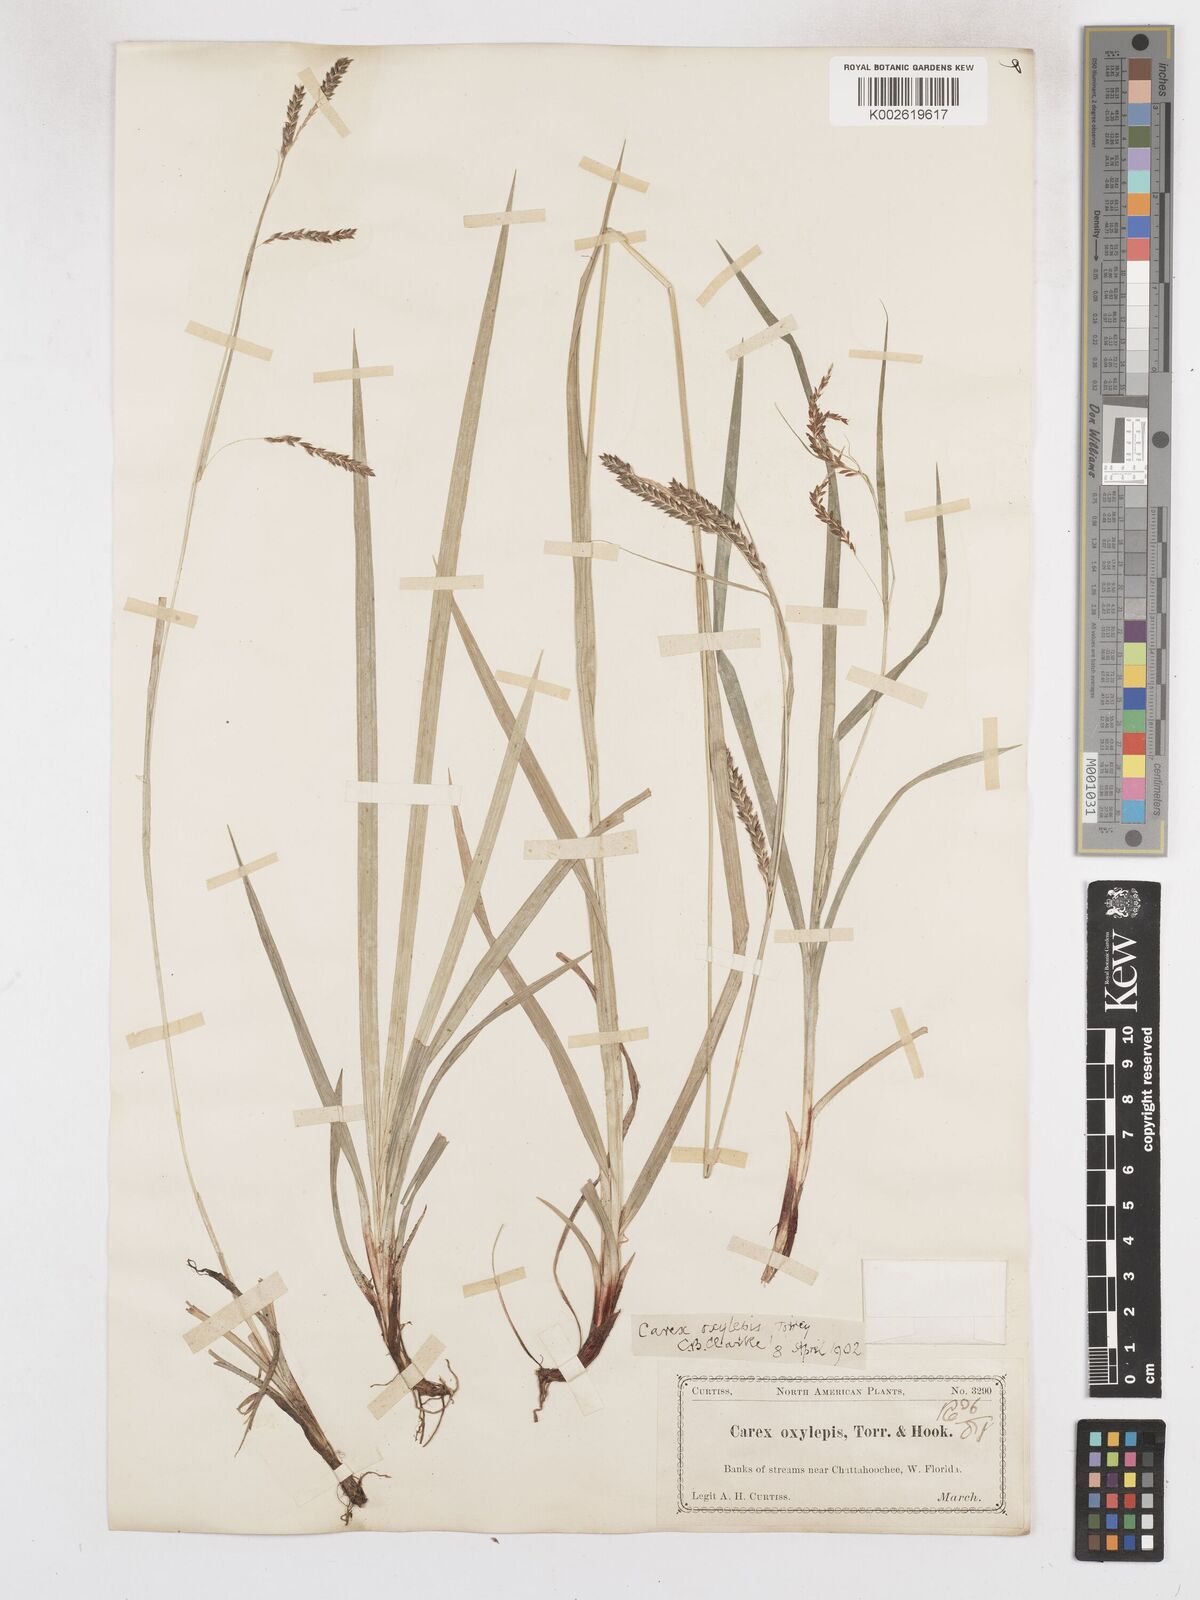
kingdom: Plantae
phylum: Tracheophyta
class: Liliopsida
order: Poales
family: Cyperaceae
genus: Carex
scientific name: Carex oxylepis
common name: Sharpscale sedge
